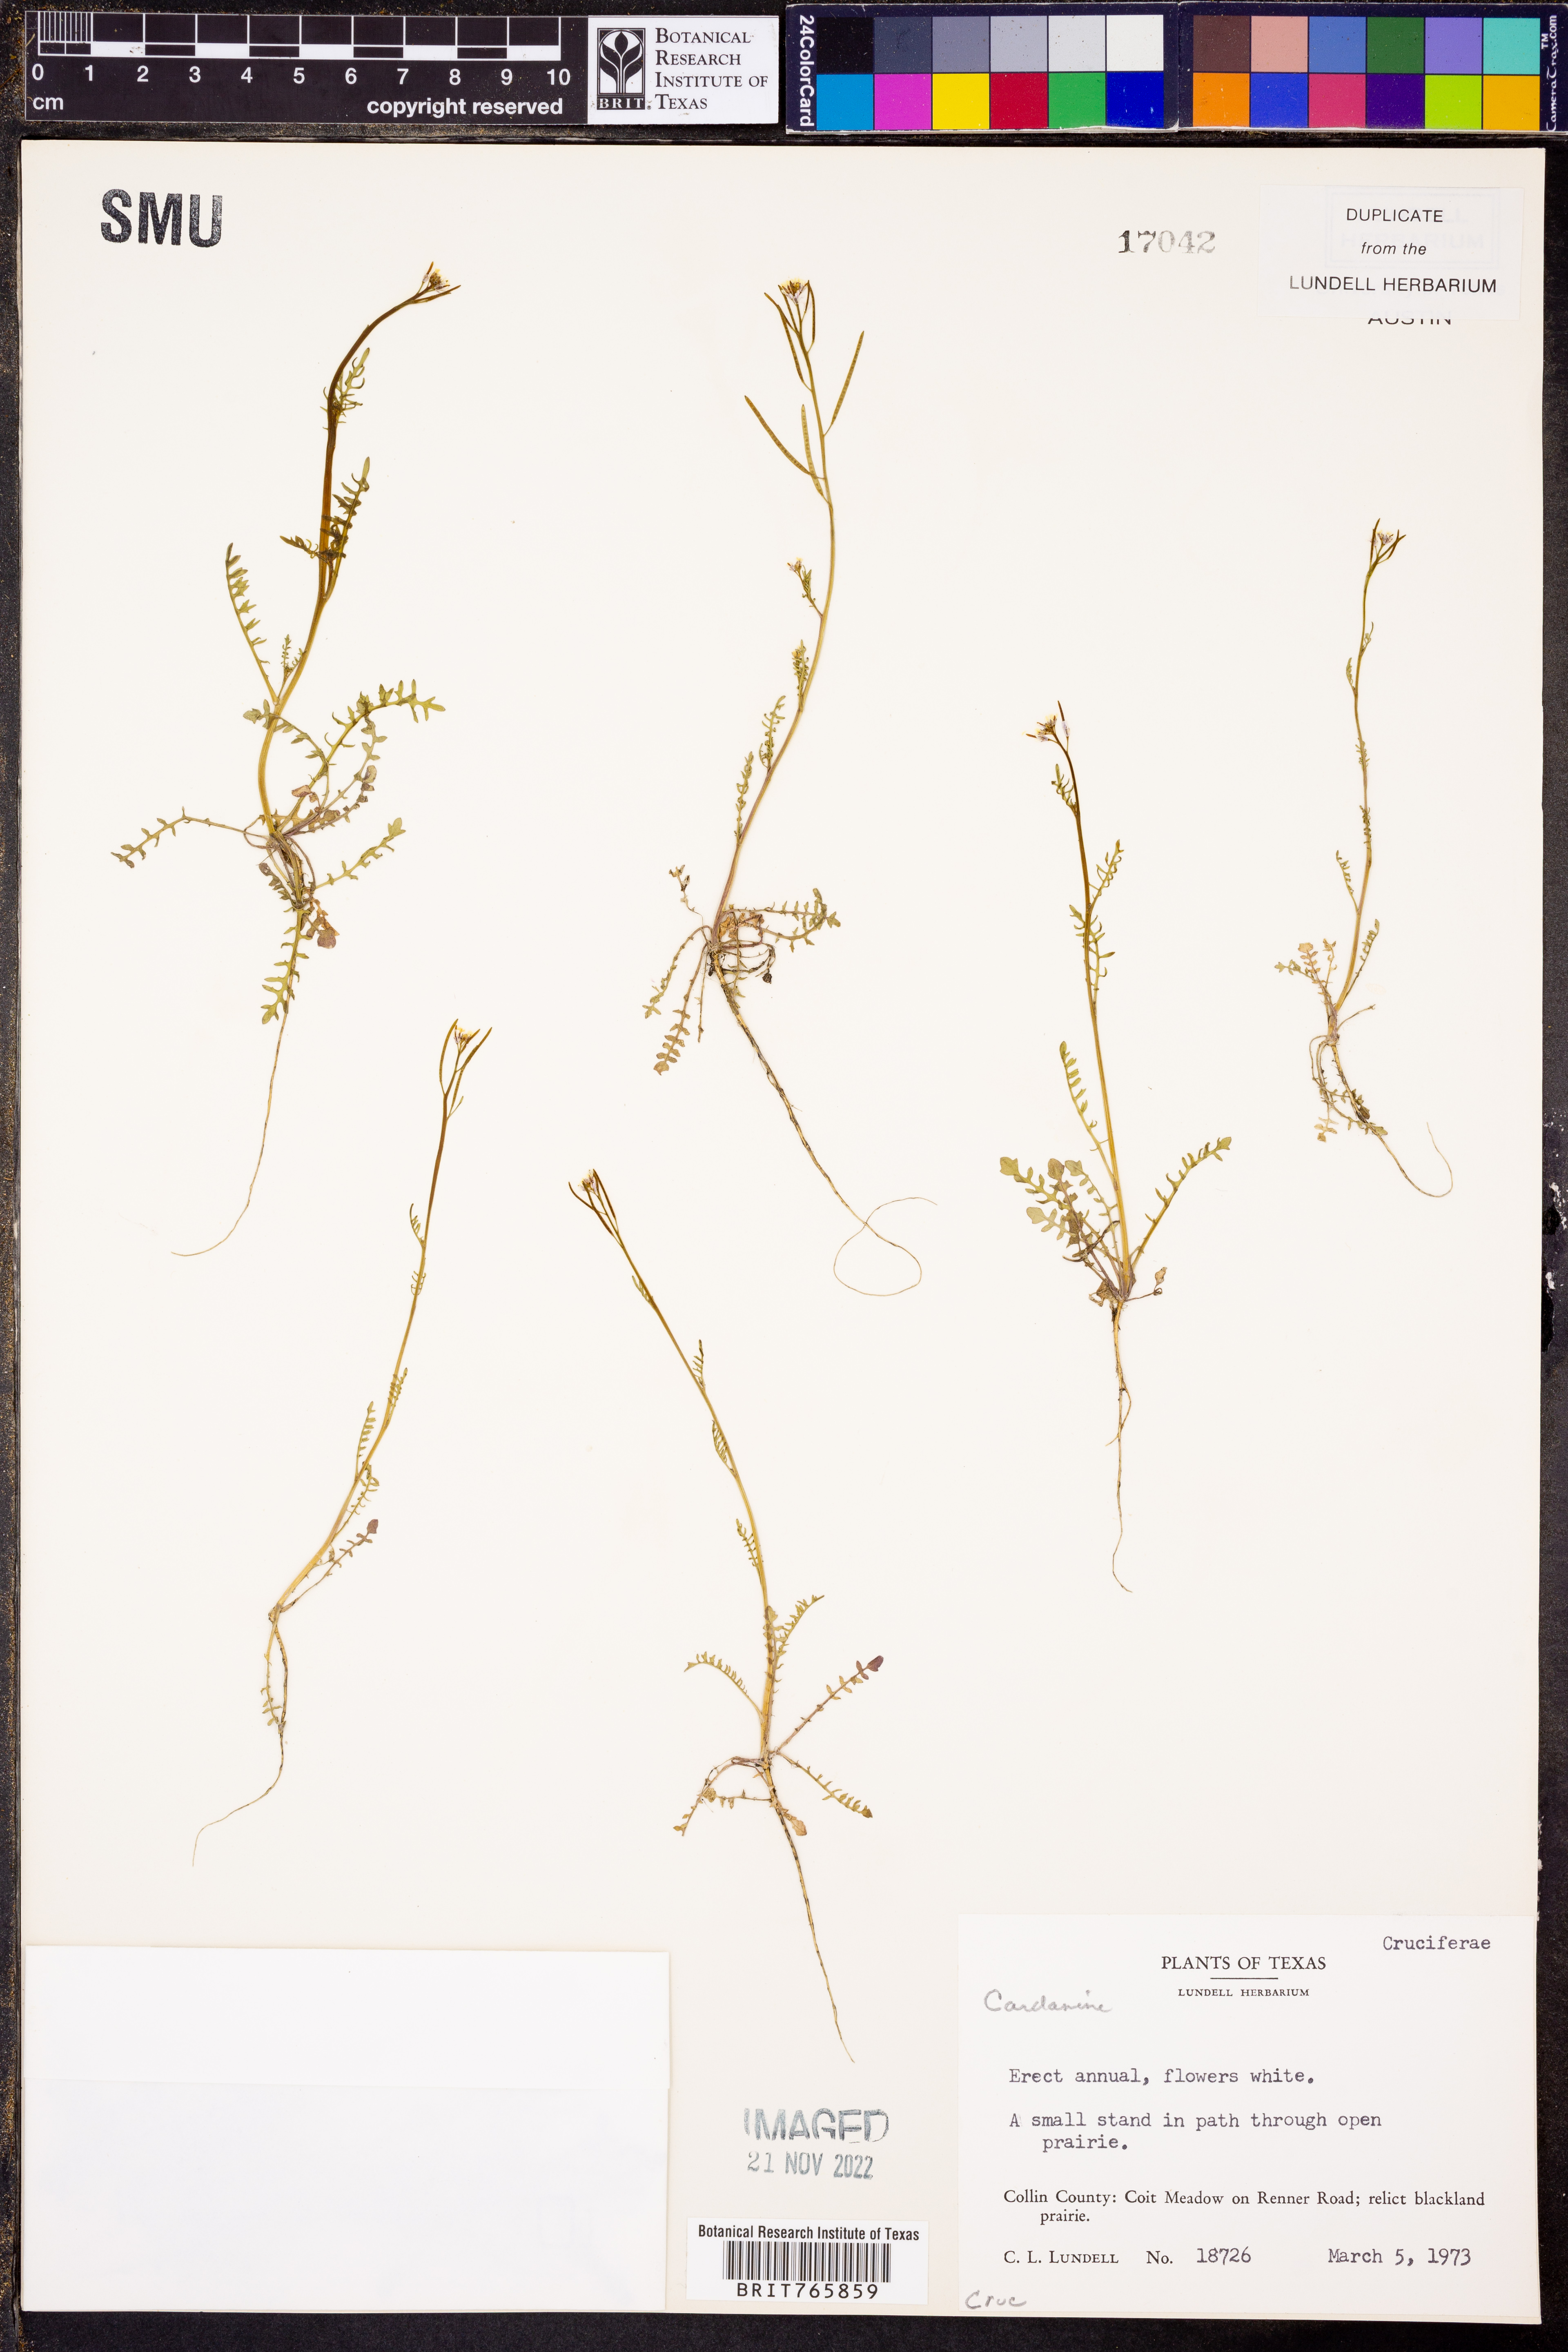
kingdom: Plantae
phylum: Tracheophyta
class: Magnoliopsida
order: Brassicales
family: Brassicaceae
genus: Cardamine
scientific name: Cardamine
